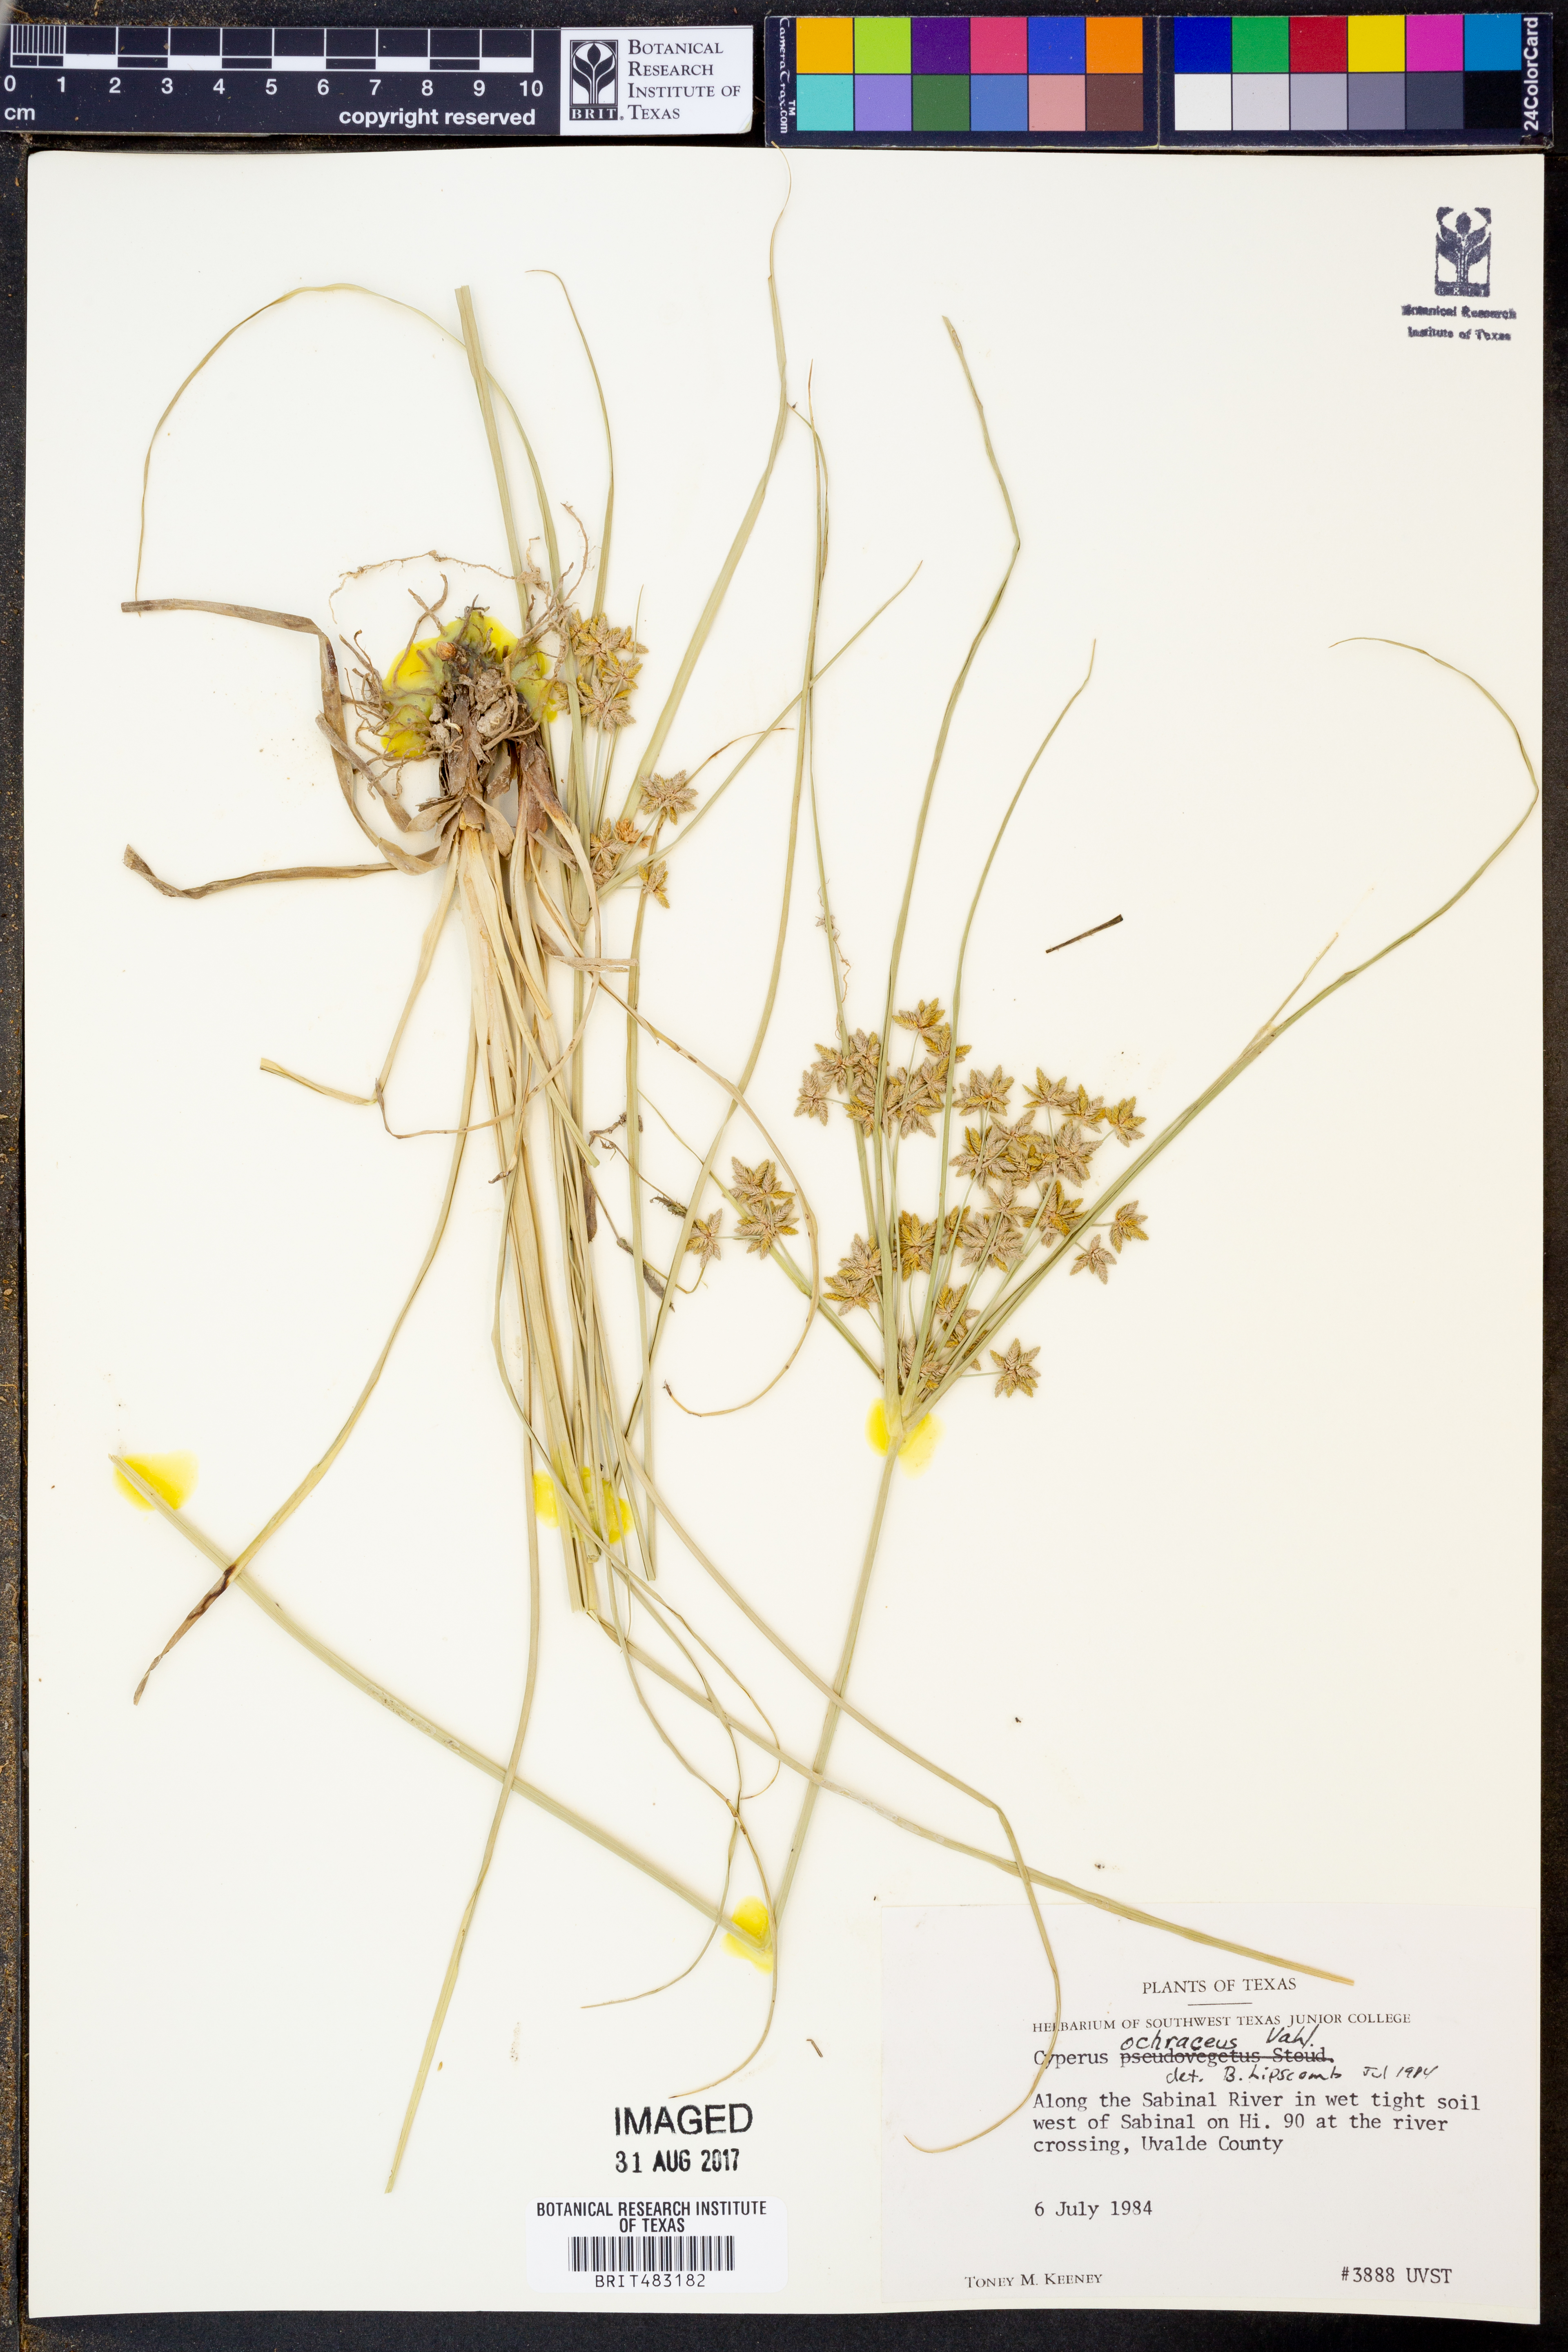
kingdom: Plantae
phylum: Tracheophyta
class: Liliopsida
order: Poales
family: Cyperaceae
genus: Cyperus
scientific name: Cyperus ochraceus
